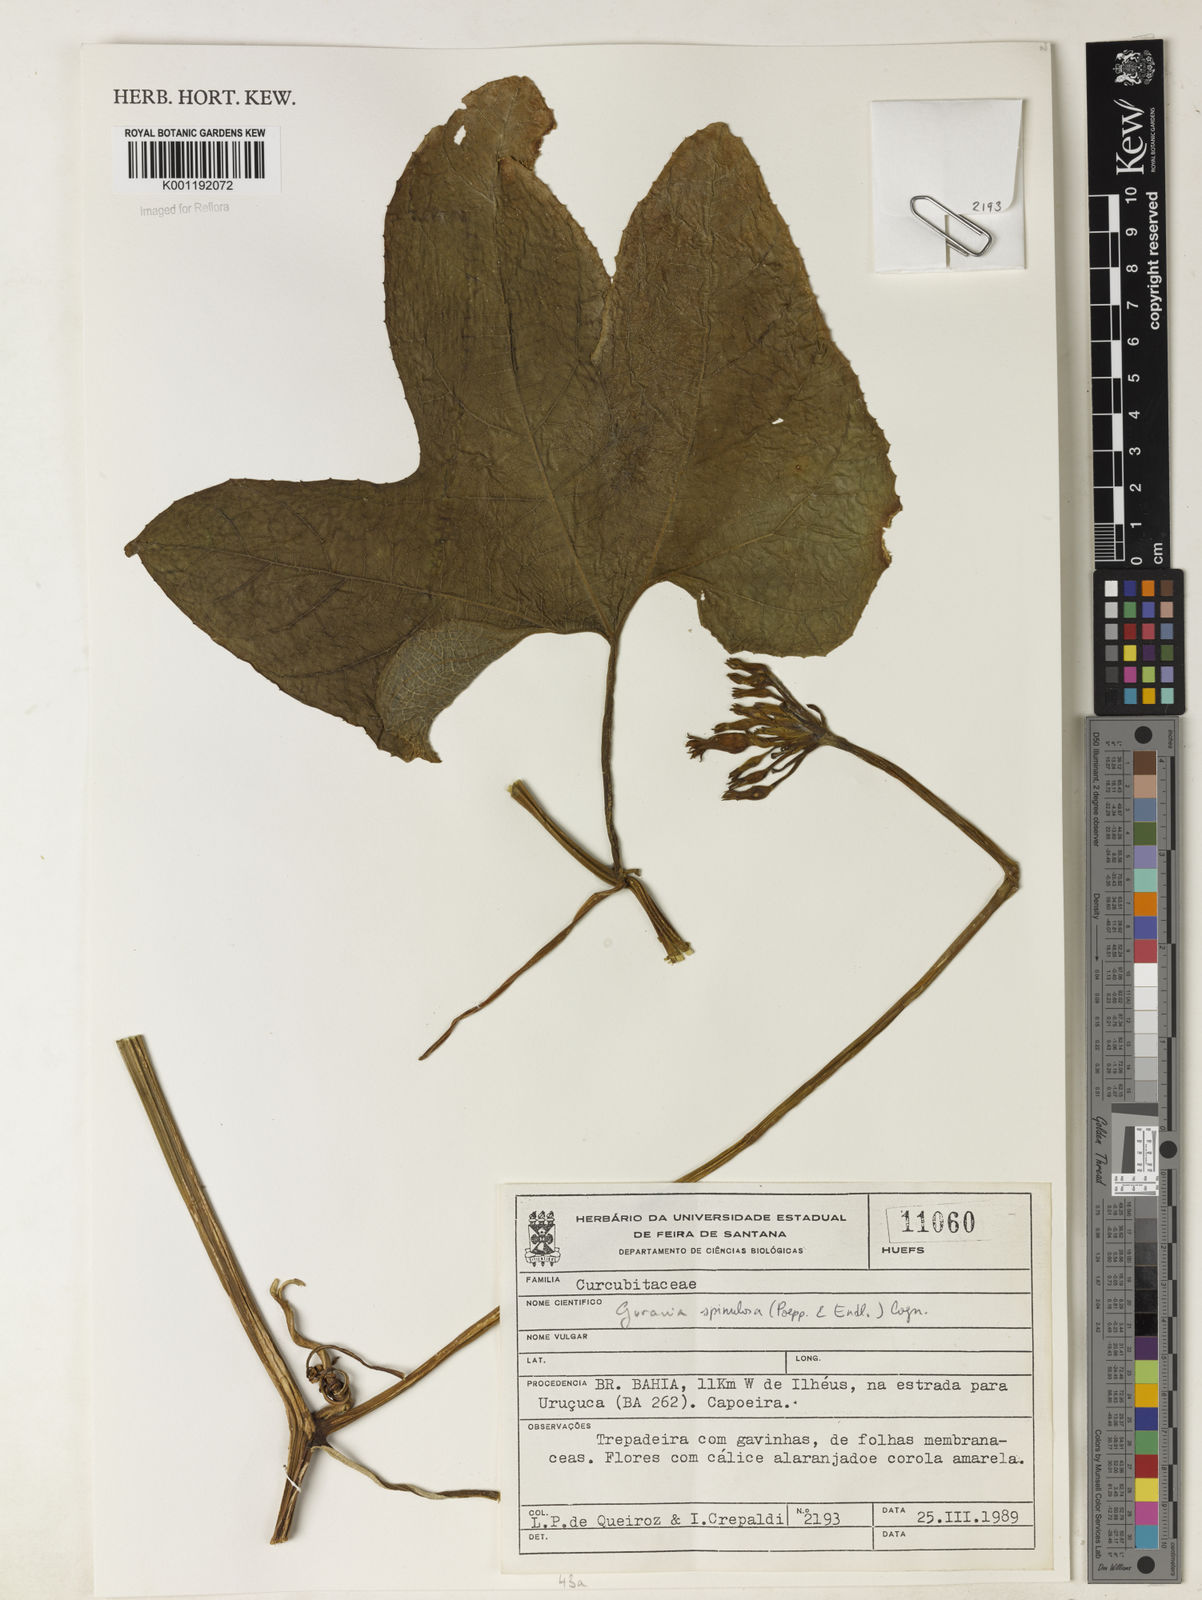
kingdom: Plantae
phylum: Tracheophyta
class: Magnoliopsida
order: Cucurbitales
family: Cucurbitaceae
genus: Gurania
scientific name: Gurania lobata
